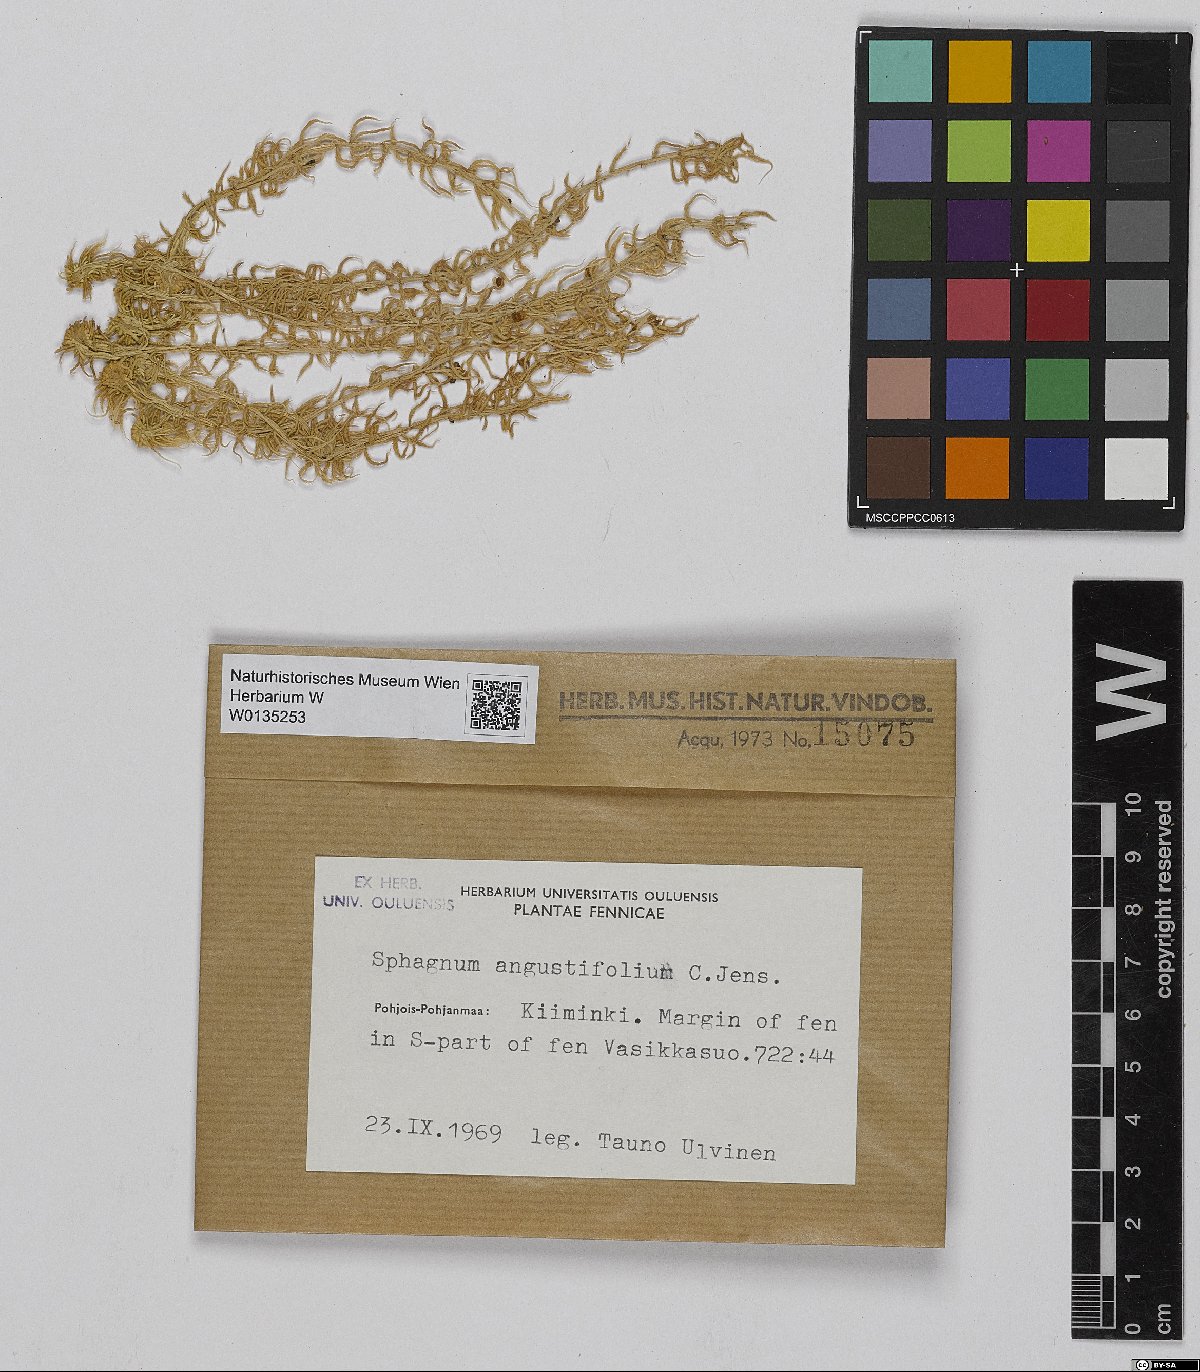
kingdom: Plantae
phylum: Bryophyta
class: Sphagnopsida
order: Sphagnales
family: Sphagnaceae
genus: Sphagnum
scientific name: Sphagnum angustifolium
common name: Narrow-leaved peat moss
